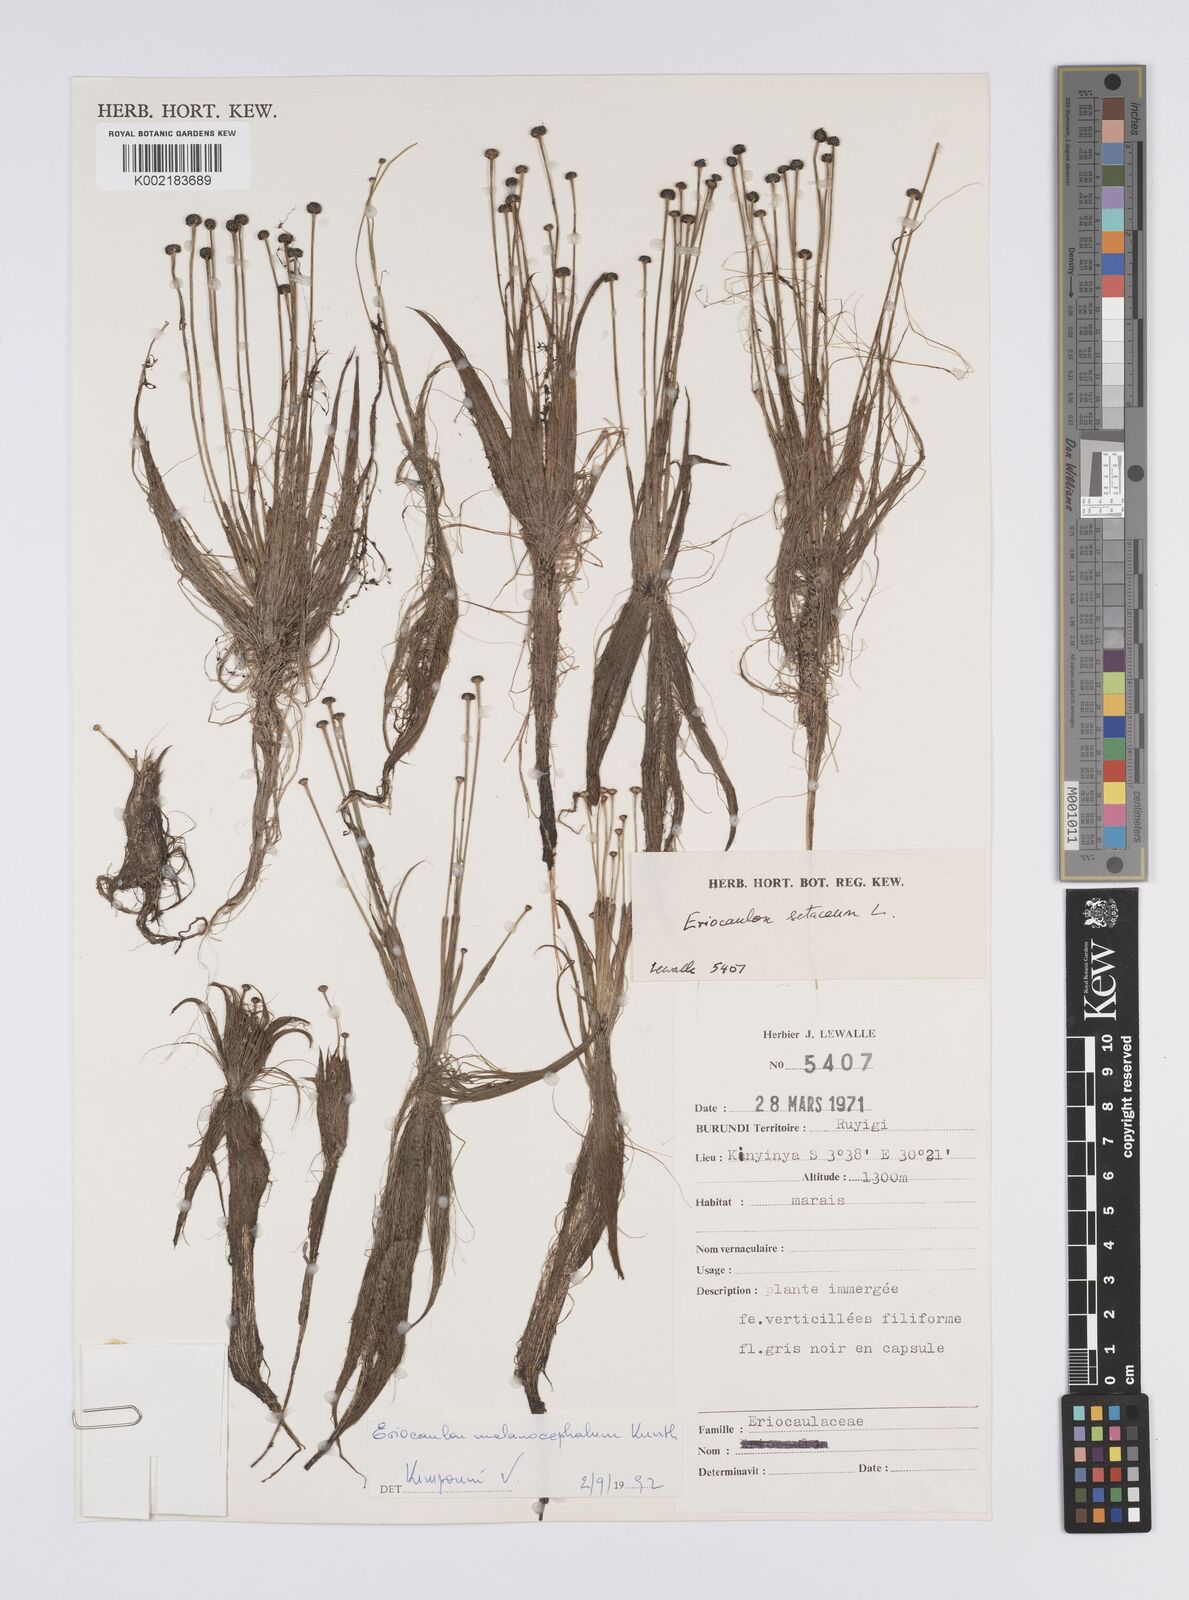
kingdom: Plantae
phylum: Tracheophyta
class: Liliopsida
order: Poales
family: Eriocaulaceae
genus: Eriocaulon
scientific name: Eriocaulon setaceum
